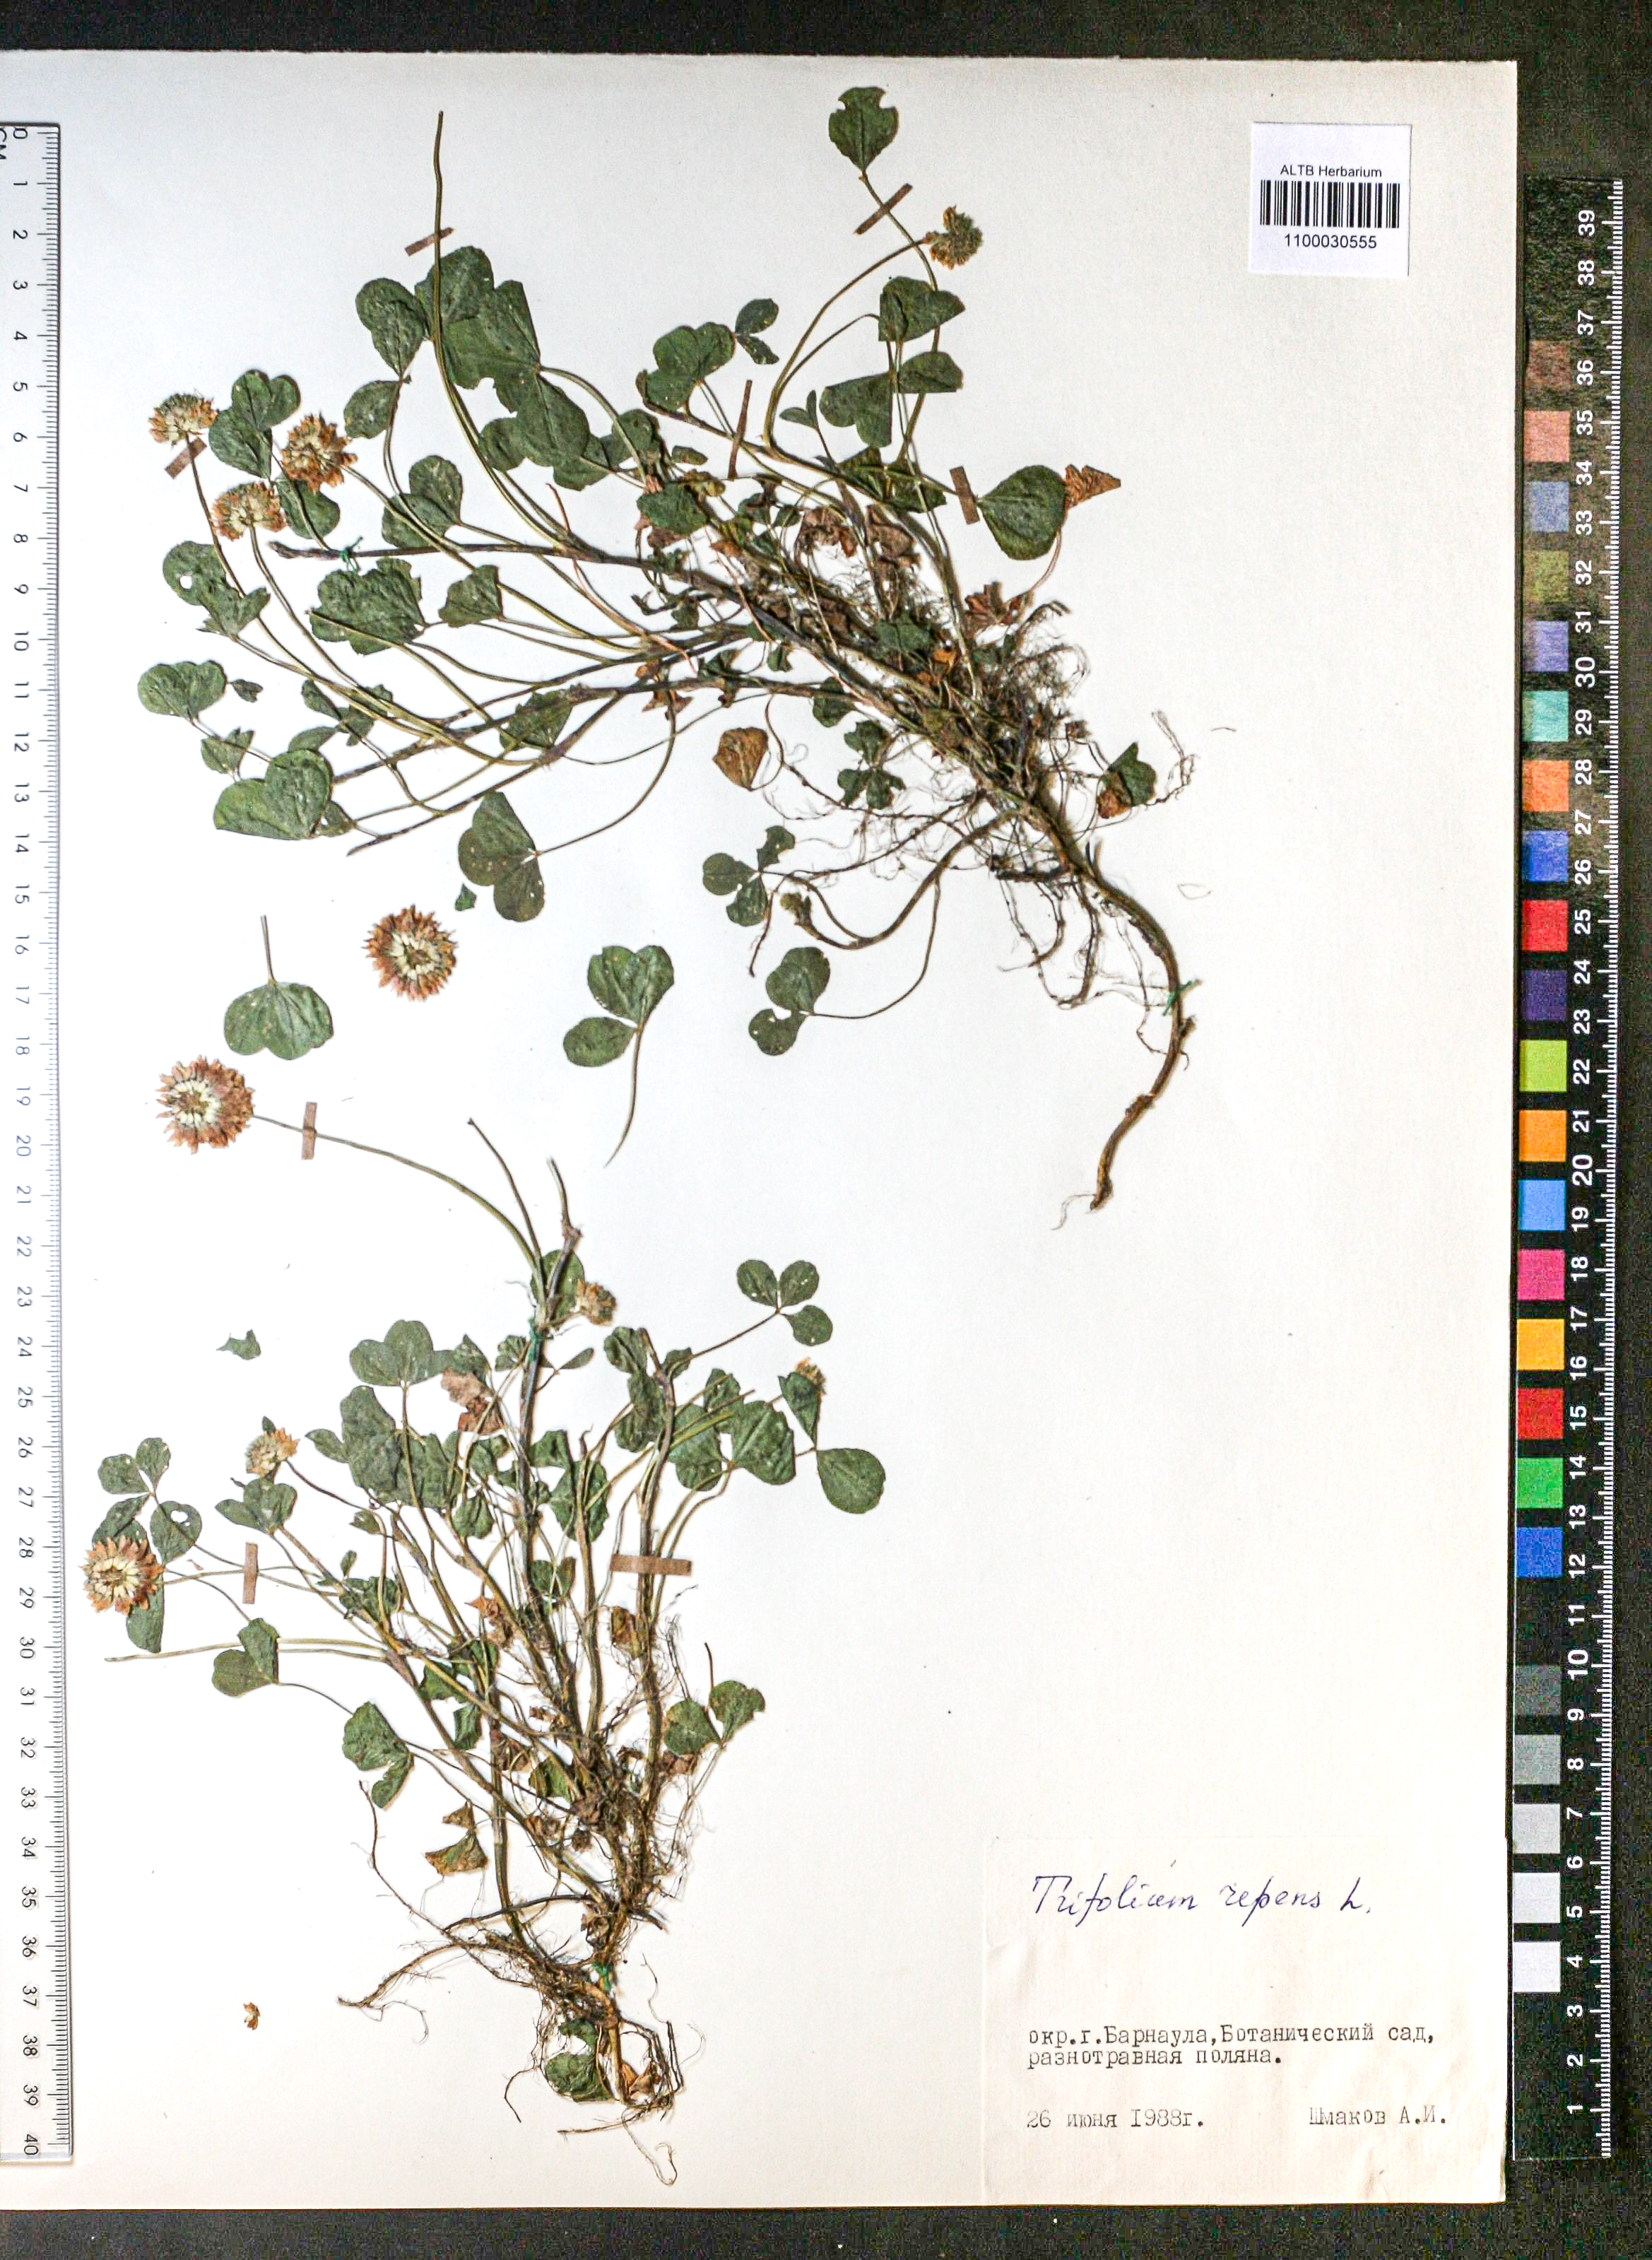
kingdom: Plantae
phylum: Tracheophyta
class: Magnoliopsida
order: Fabales
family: Fabaceae
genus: Trifolium
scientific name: Trifolium repens
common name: White clover
